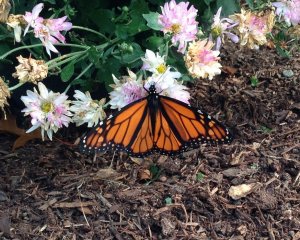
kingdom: Animalia
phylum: Arthropoda
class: Insecta
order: Lepidoptera
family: Nymphalidae
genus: Danaus
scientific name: Danaus plexippus
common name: Monarch
